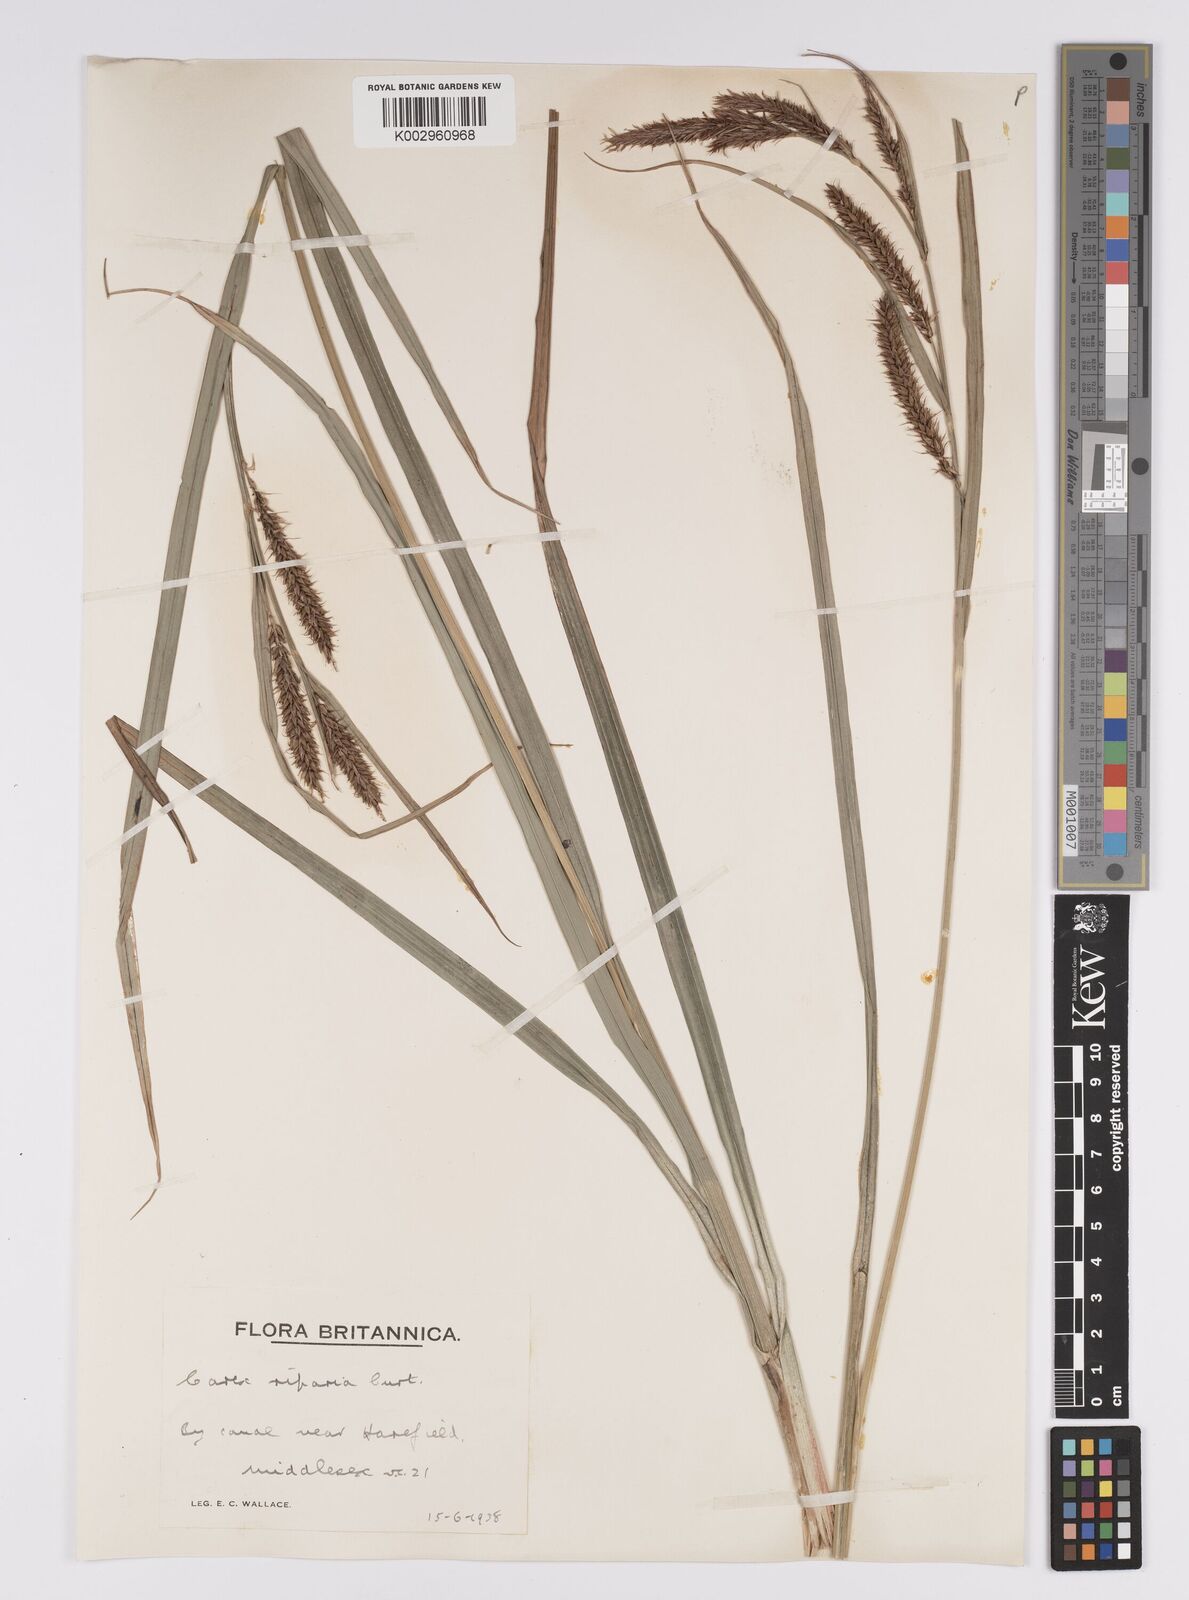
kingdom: Plantae
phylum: Tracheophyta
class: Liliopsida
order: Poales
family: Cyperaceae
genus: Carex
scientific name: Carex riparia
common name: Greater pond-sedge
